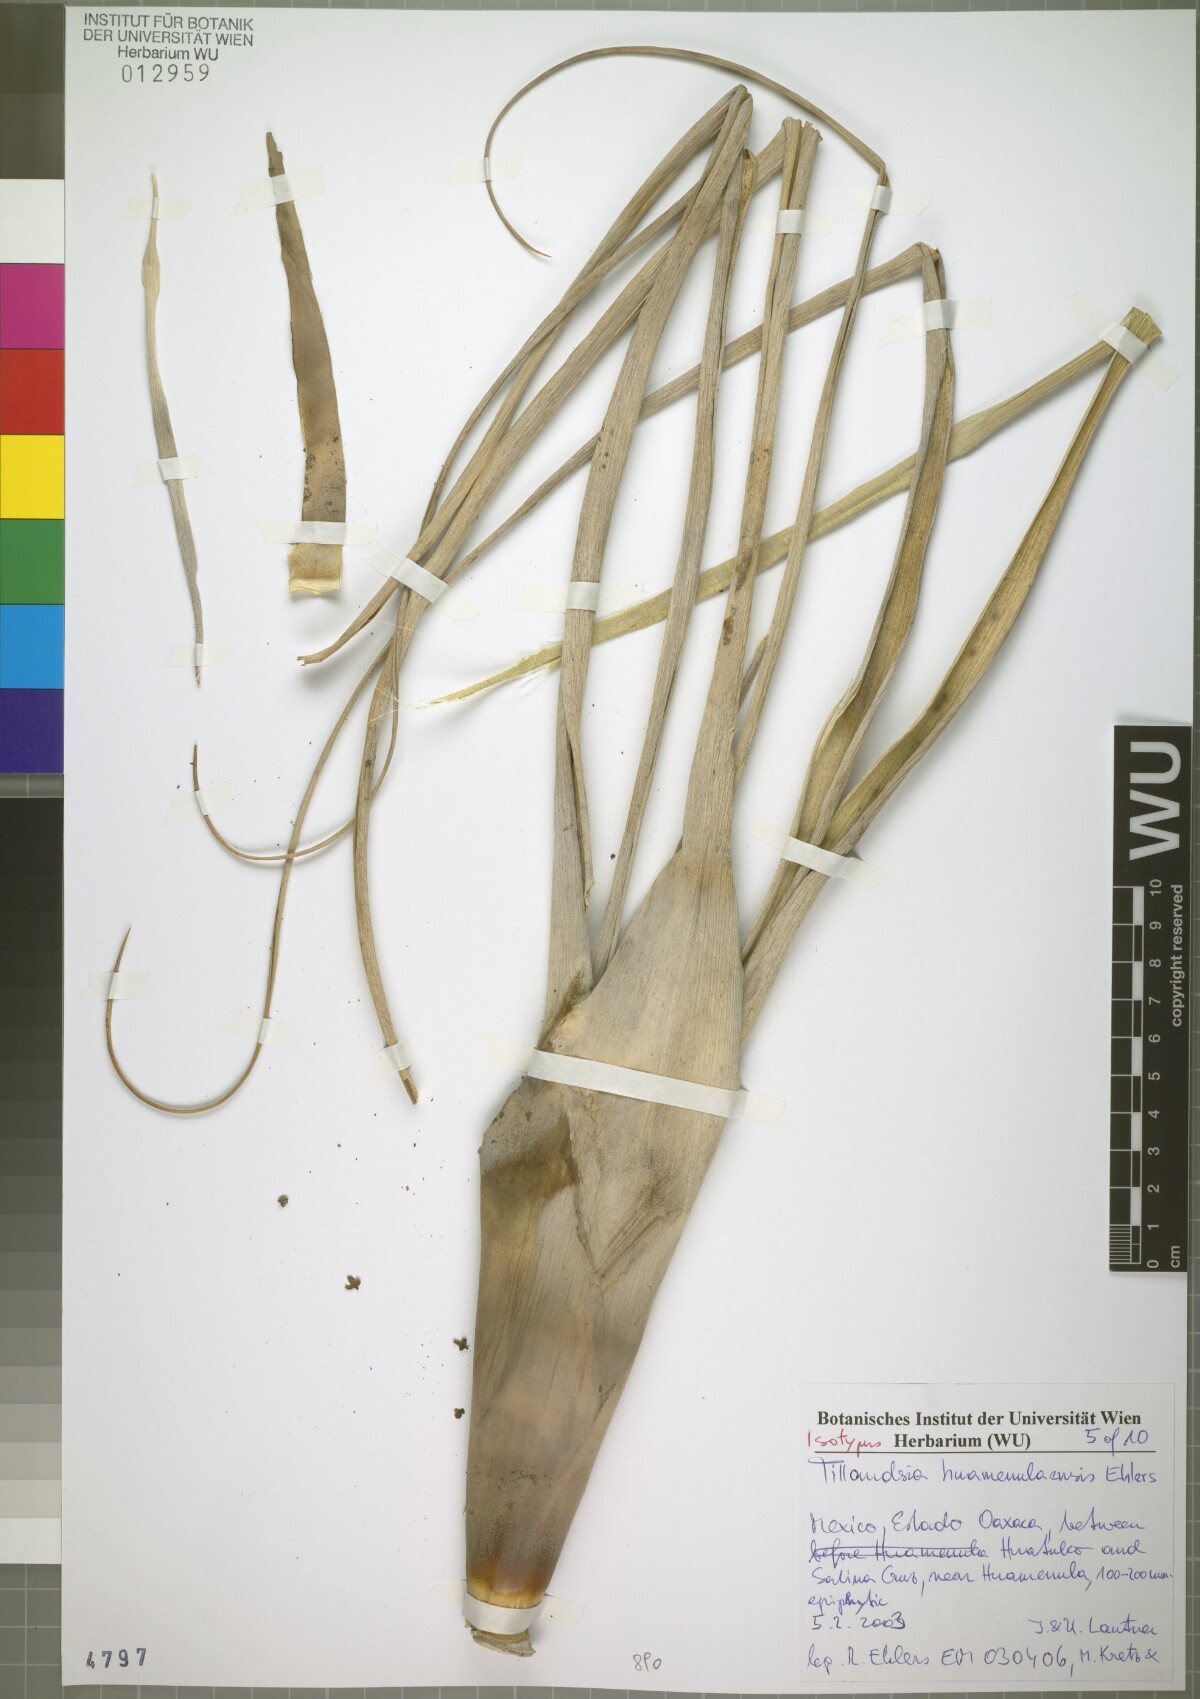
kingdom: Plantae
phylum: Tracheophyta
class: Liliopsida
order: Poales
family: Bromeliaceae
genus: Tillandsia
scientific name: Tillandsia huamenulaensis
